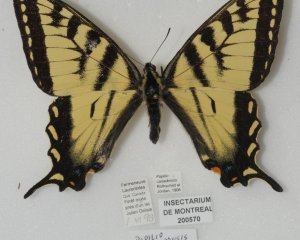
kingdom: Animalia
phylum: Arthropoda
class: Insecta
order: Lepidoptera
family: Papilionidae
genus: Pterourus
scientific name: Pterourus canadensis
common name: Canadian Tiger Swallowtail
